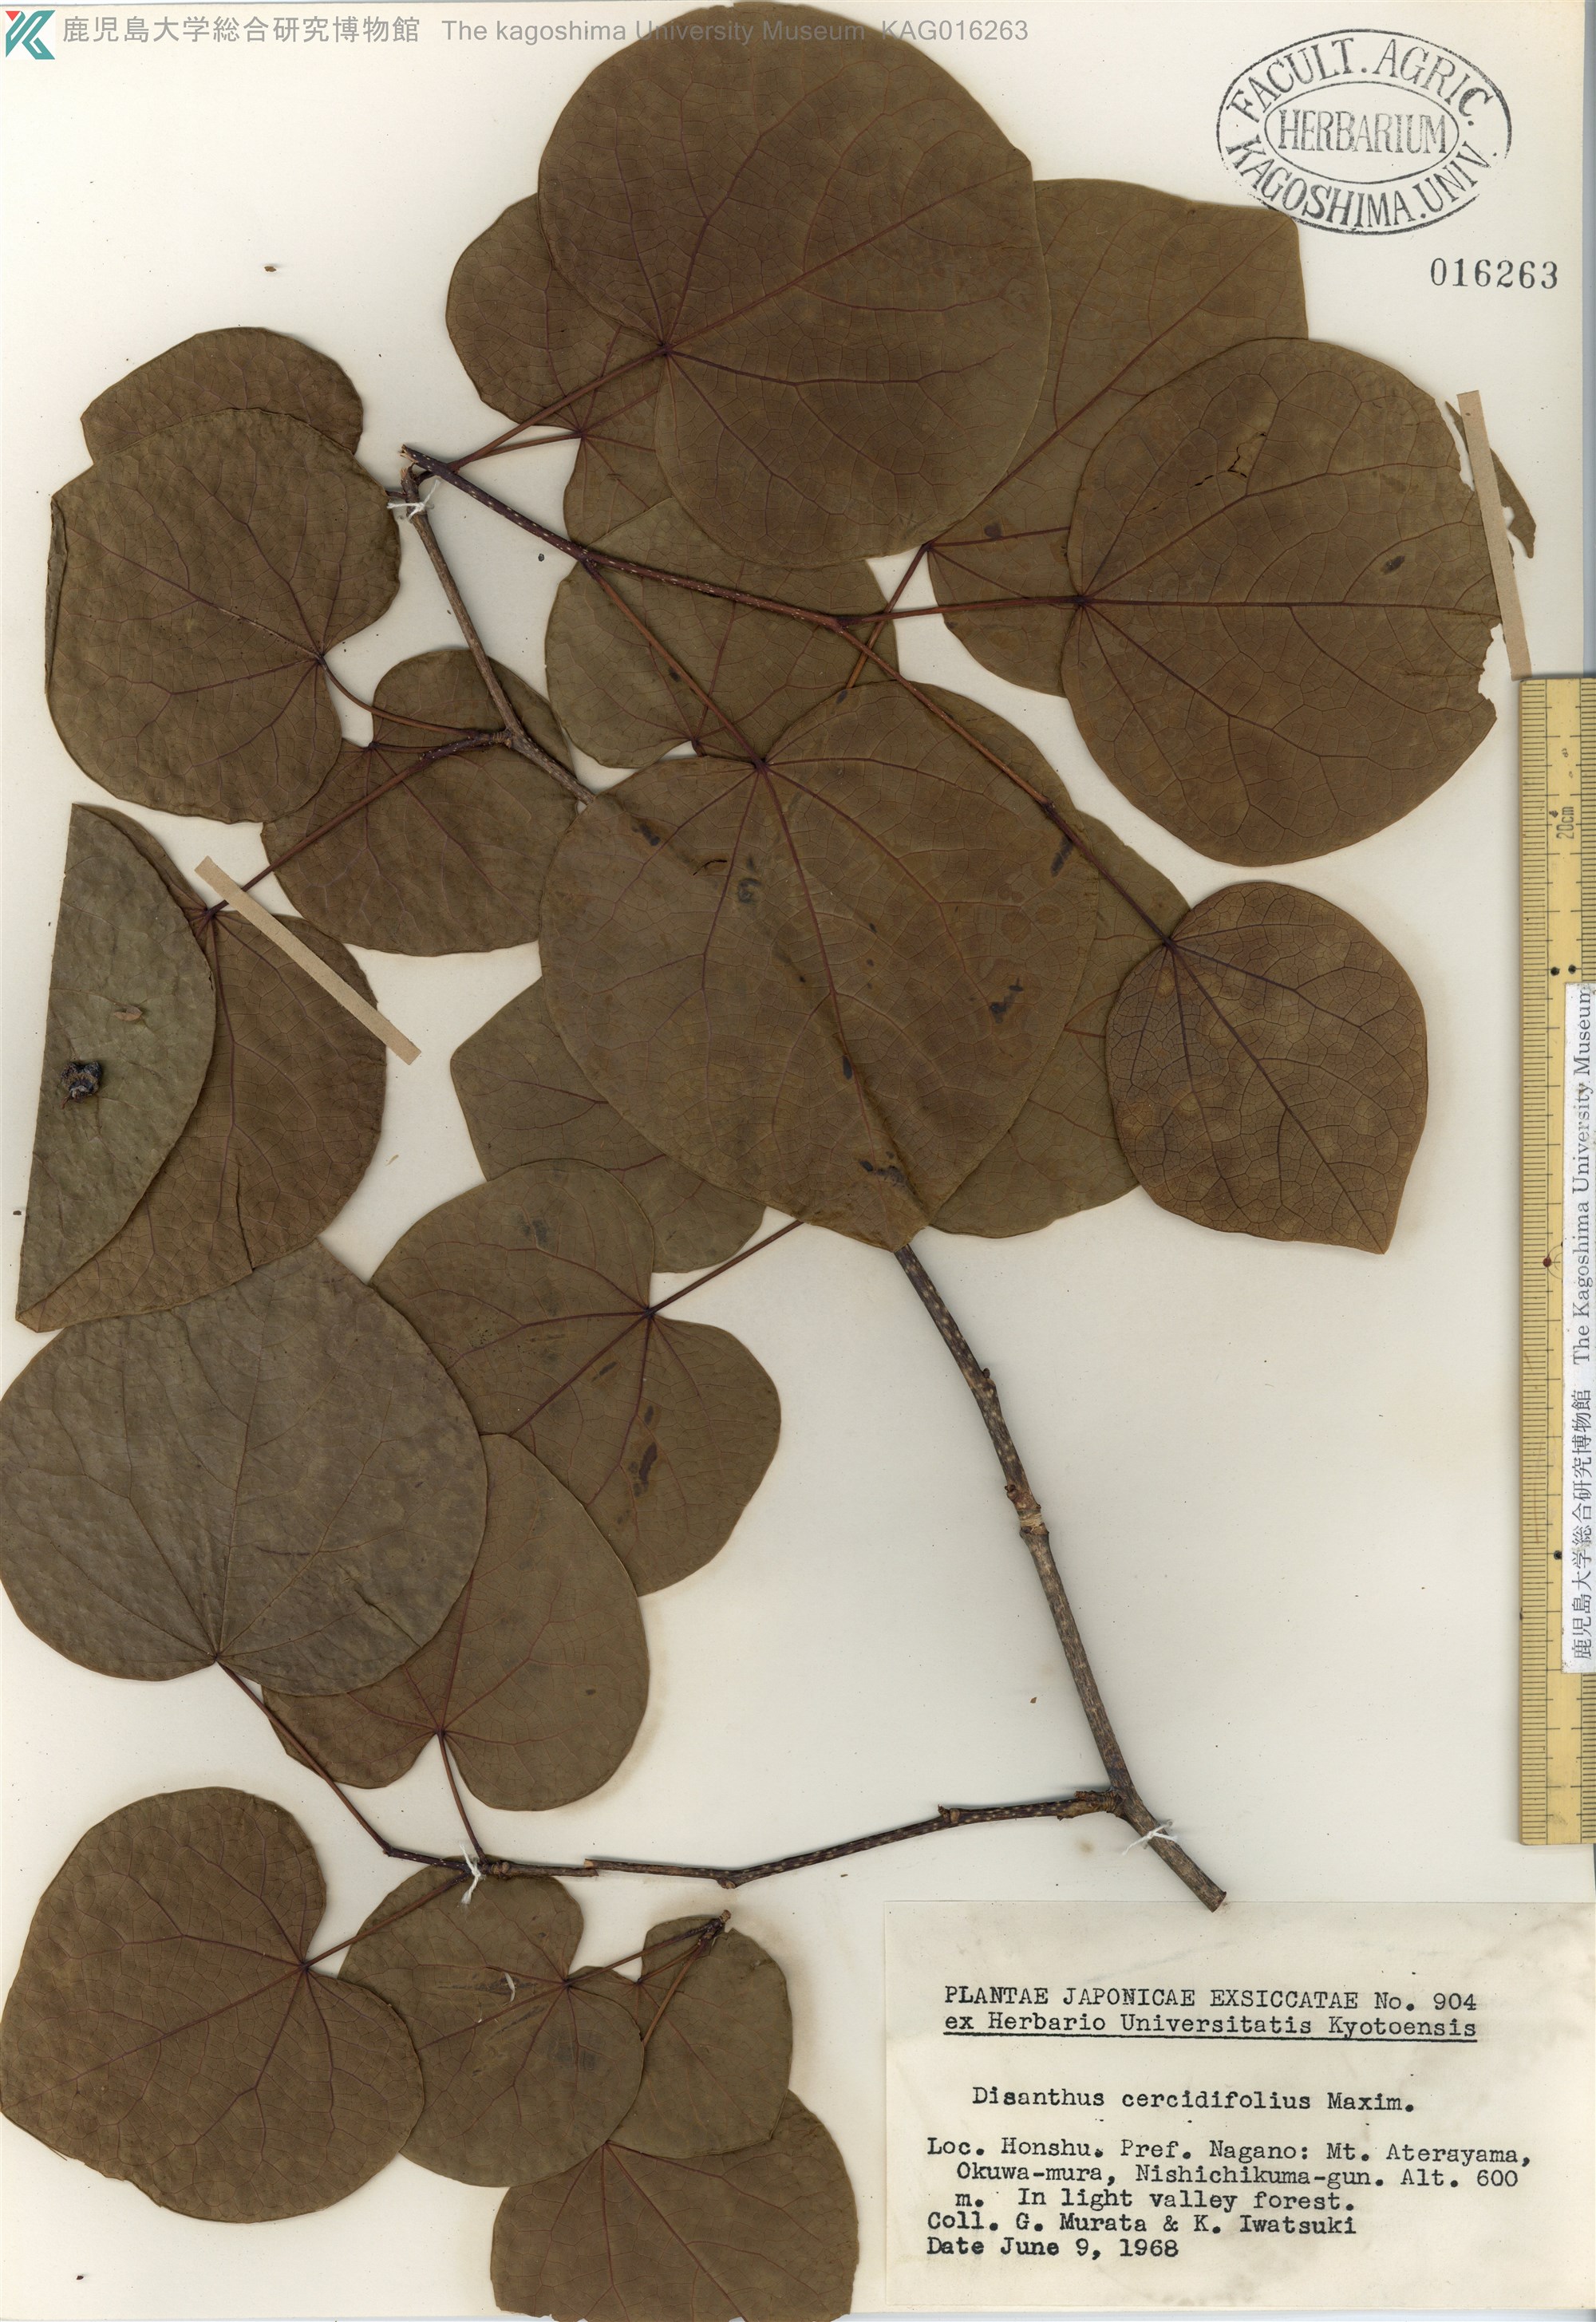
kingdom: Plantae
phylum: Tracheophyta
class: Magnoliopsida
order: Saxifragales
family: Hamamelidaceae
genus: Disanthus
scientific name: Disanthus cercidifolius
